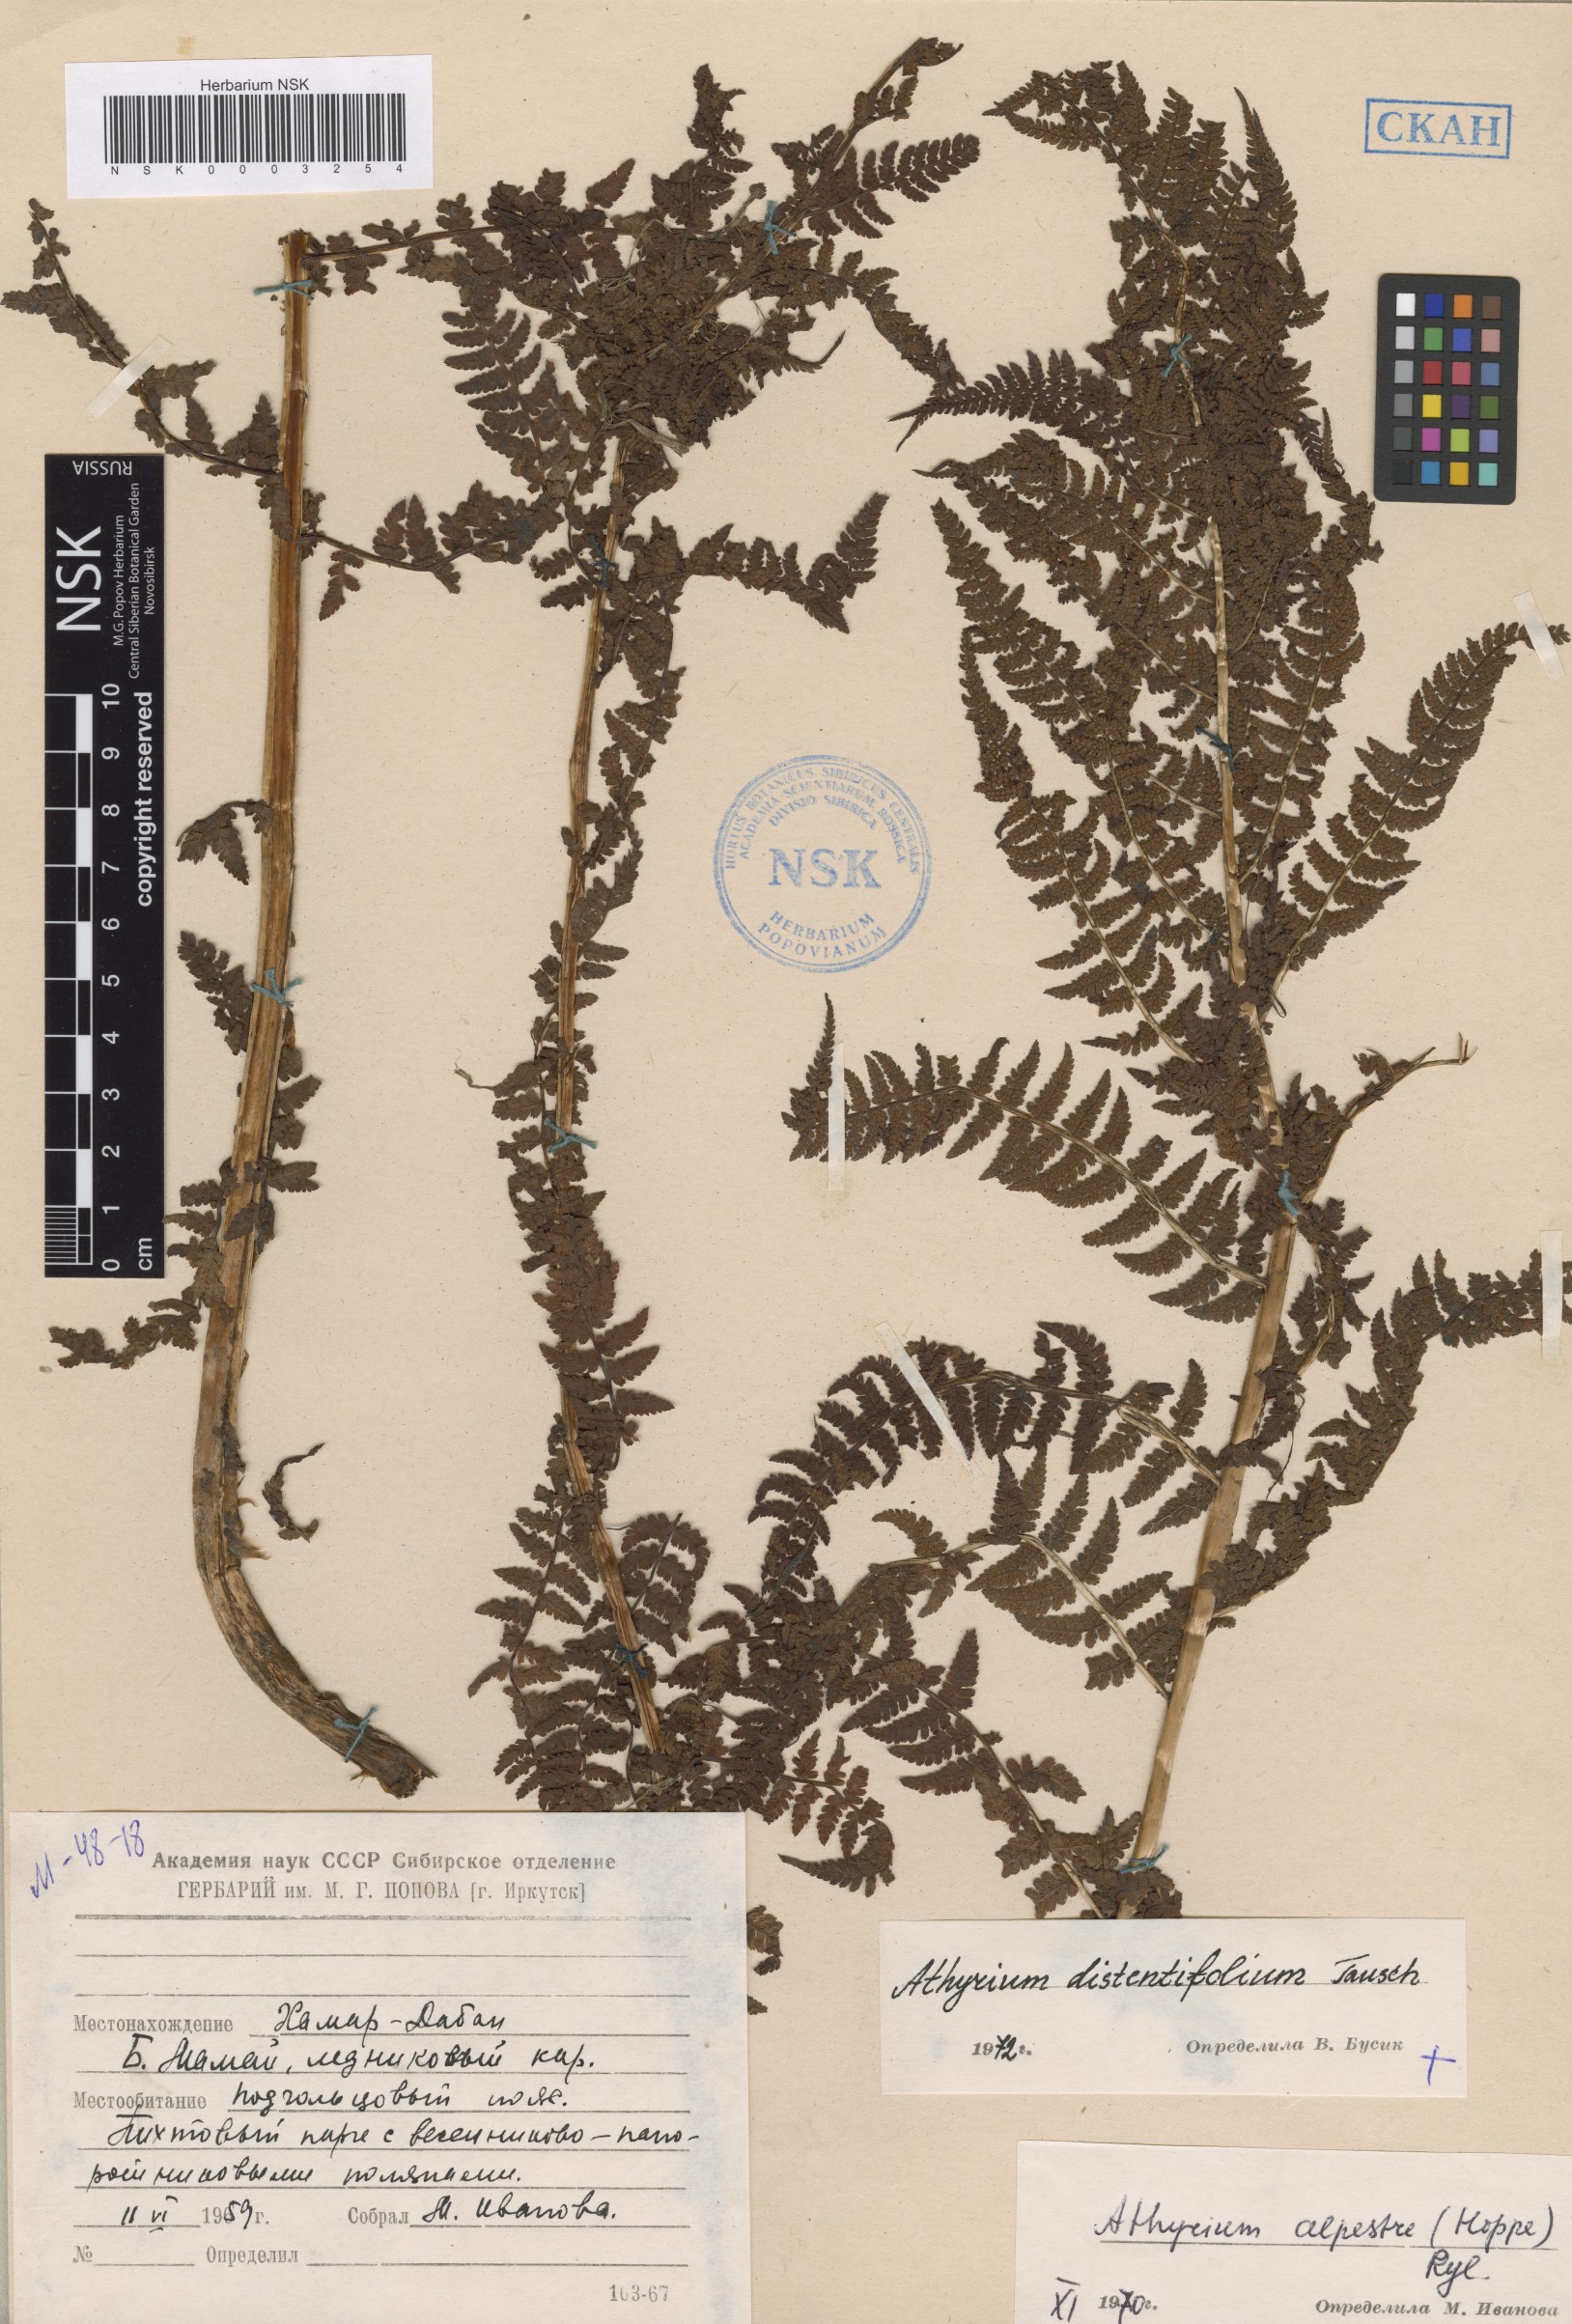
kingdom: Plantae
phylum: Tracheophyta
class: Polypodiopsida
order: Polypodiales
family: Athyriaceae
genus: Pseudathyrium
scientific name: Pseudathyrium alpestre
